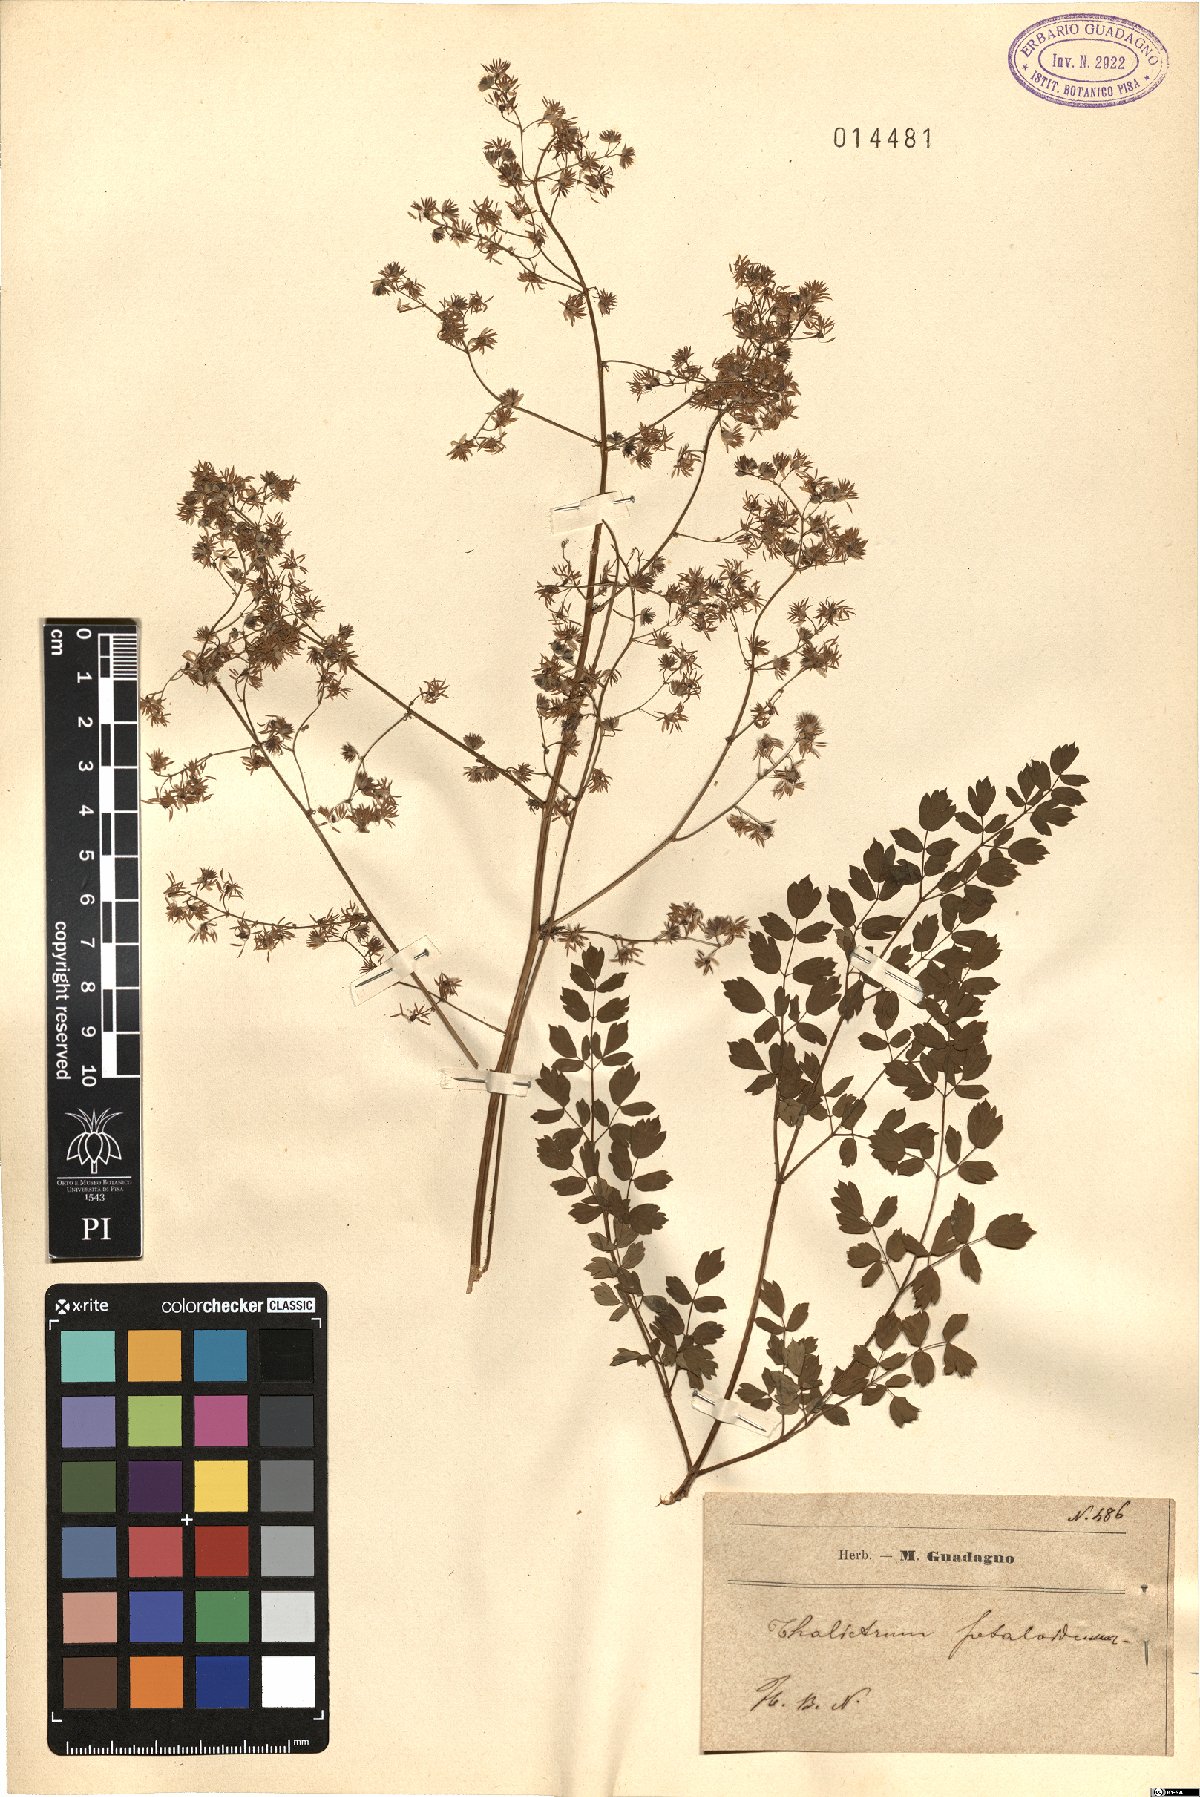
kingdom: Plantae
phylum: Tracheophyta
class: Magnoliopsida
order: Ranunculales
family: Ranunculaceae
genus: Thalictrum
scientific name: Thalictrum petaloideum
